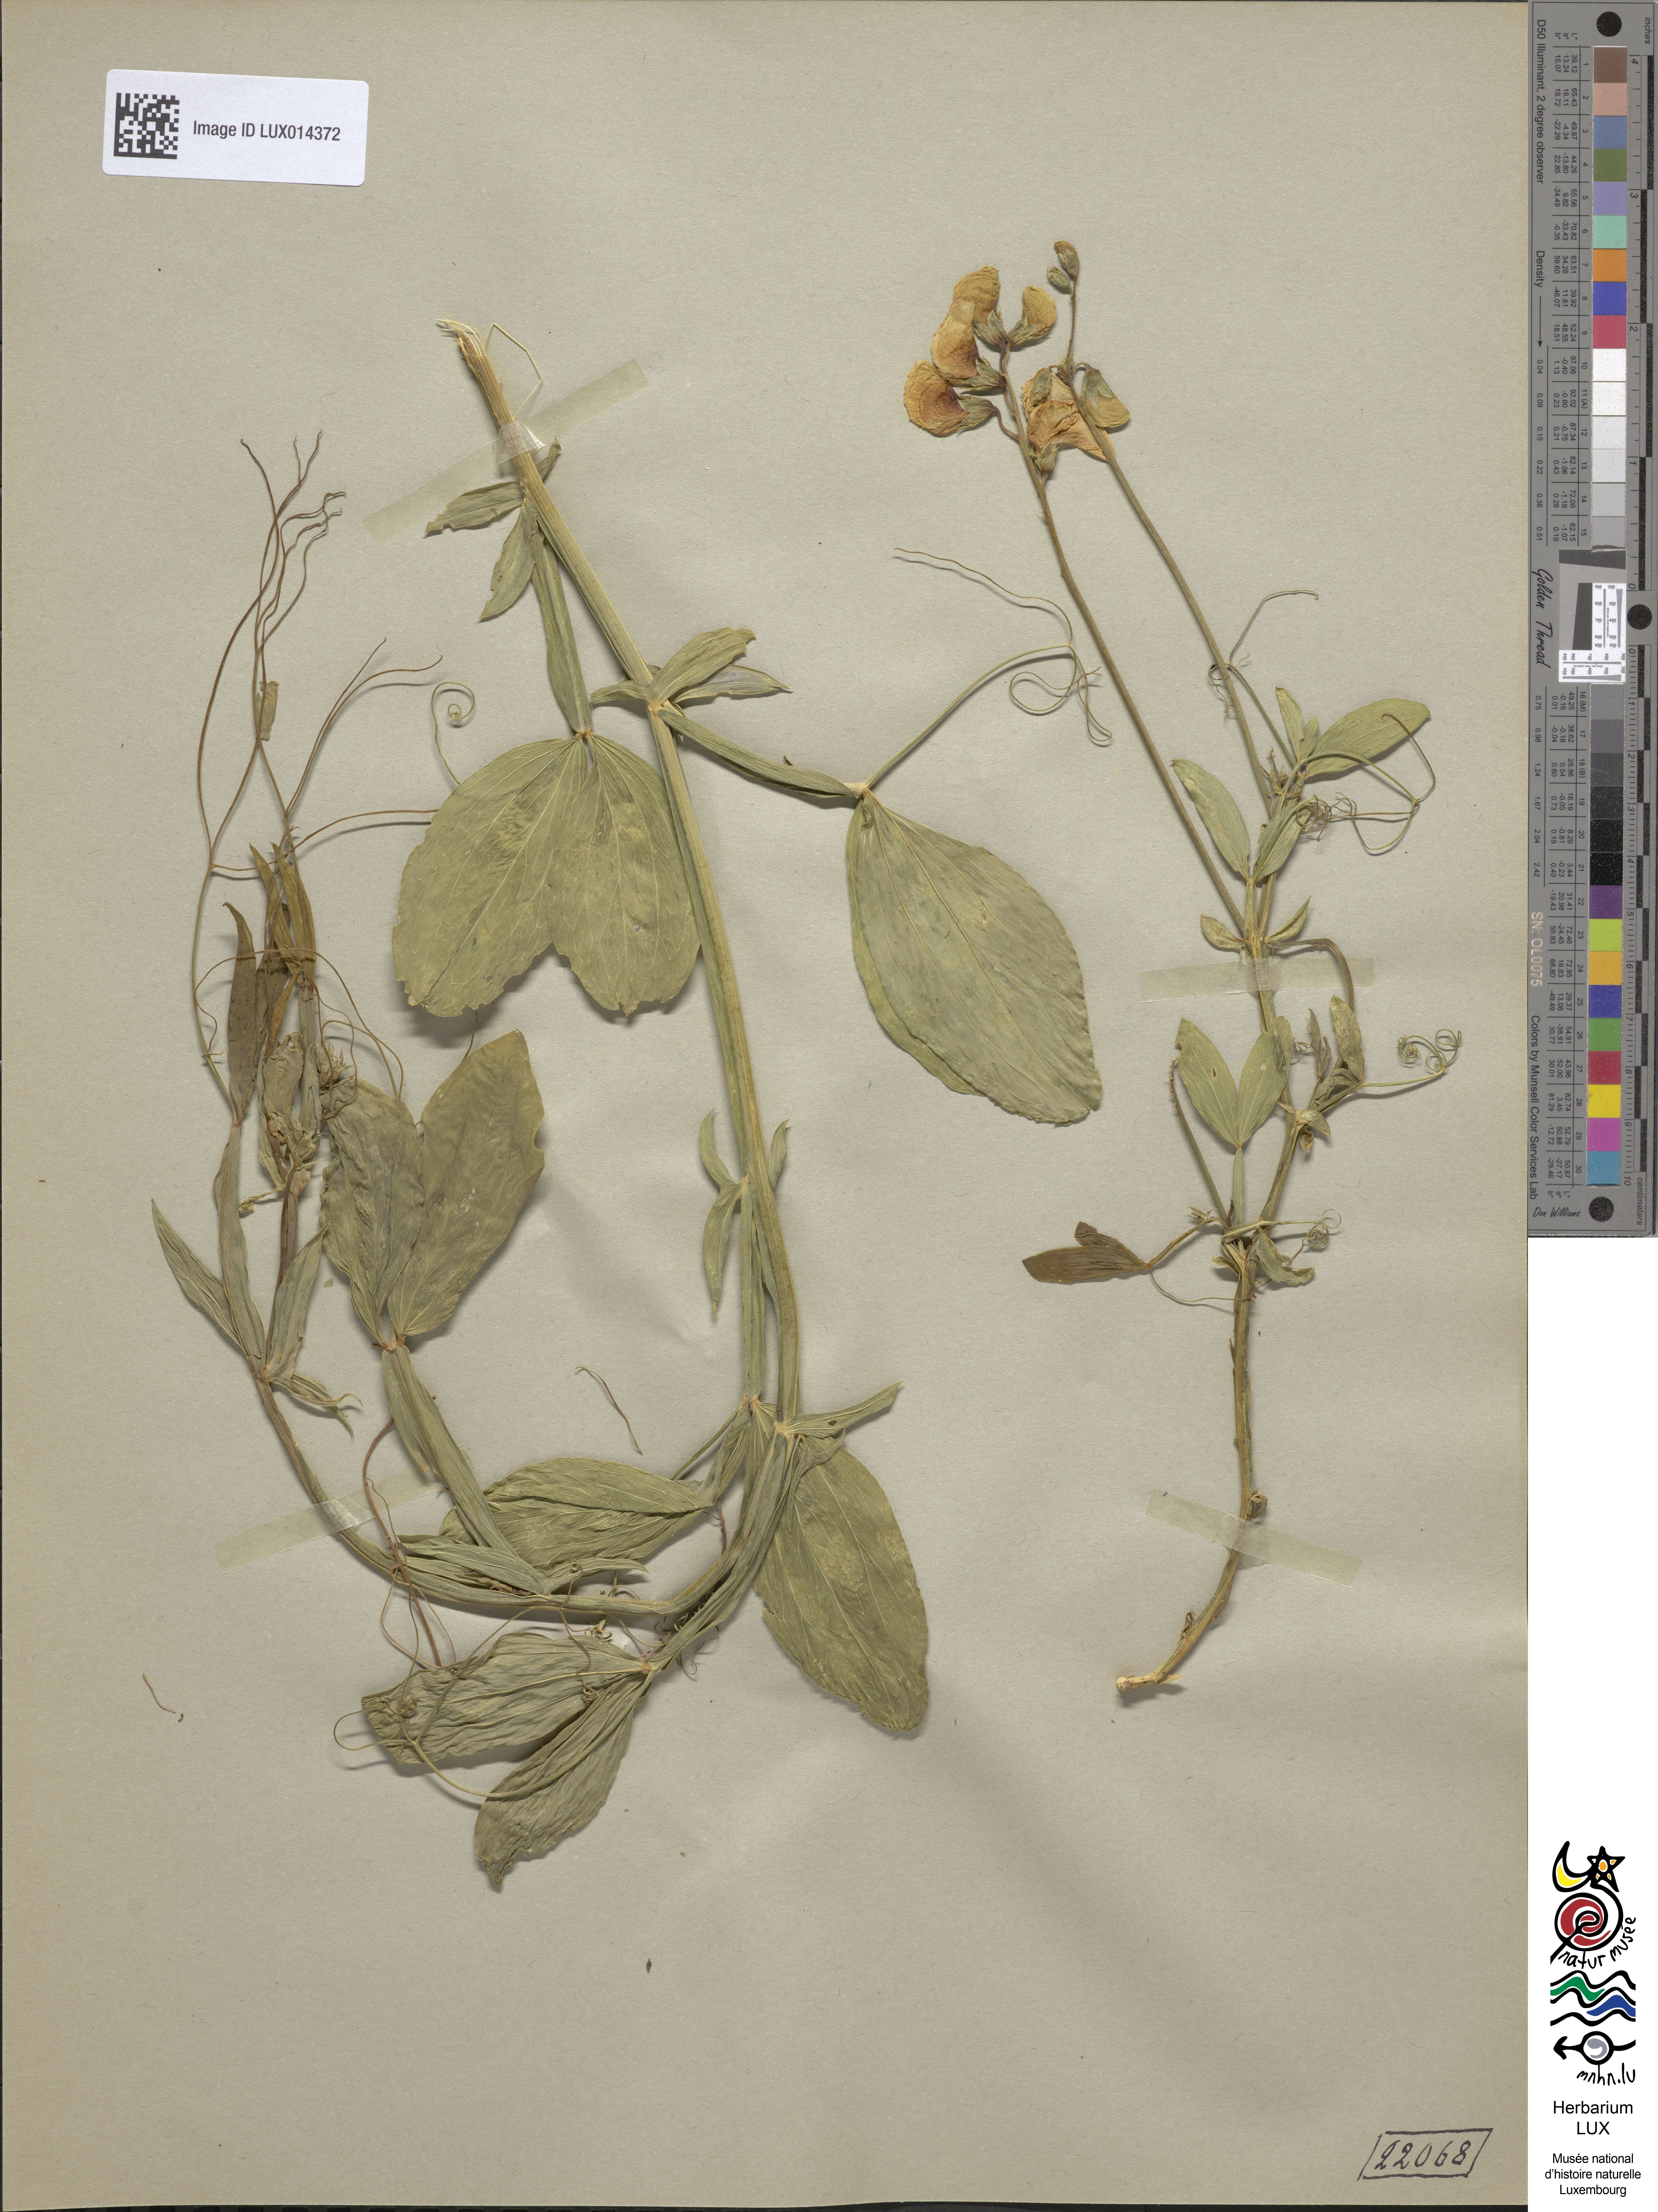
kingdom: Plantae
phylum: Tracheophyta
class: Magnoliopsida
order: Fabales
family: Fabaceae
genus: Lathyrus
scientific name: Lathyrus latifolius
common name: Perennial pea
